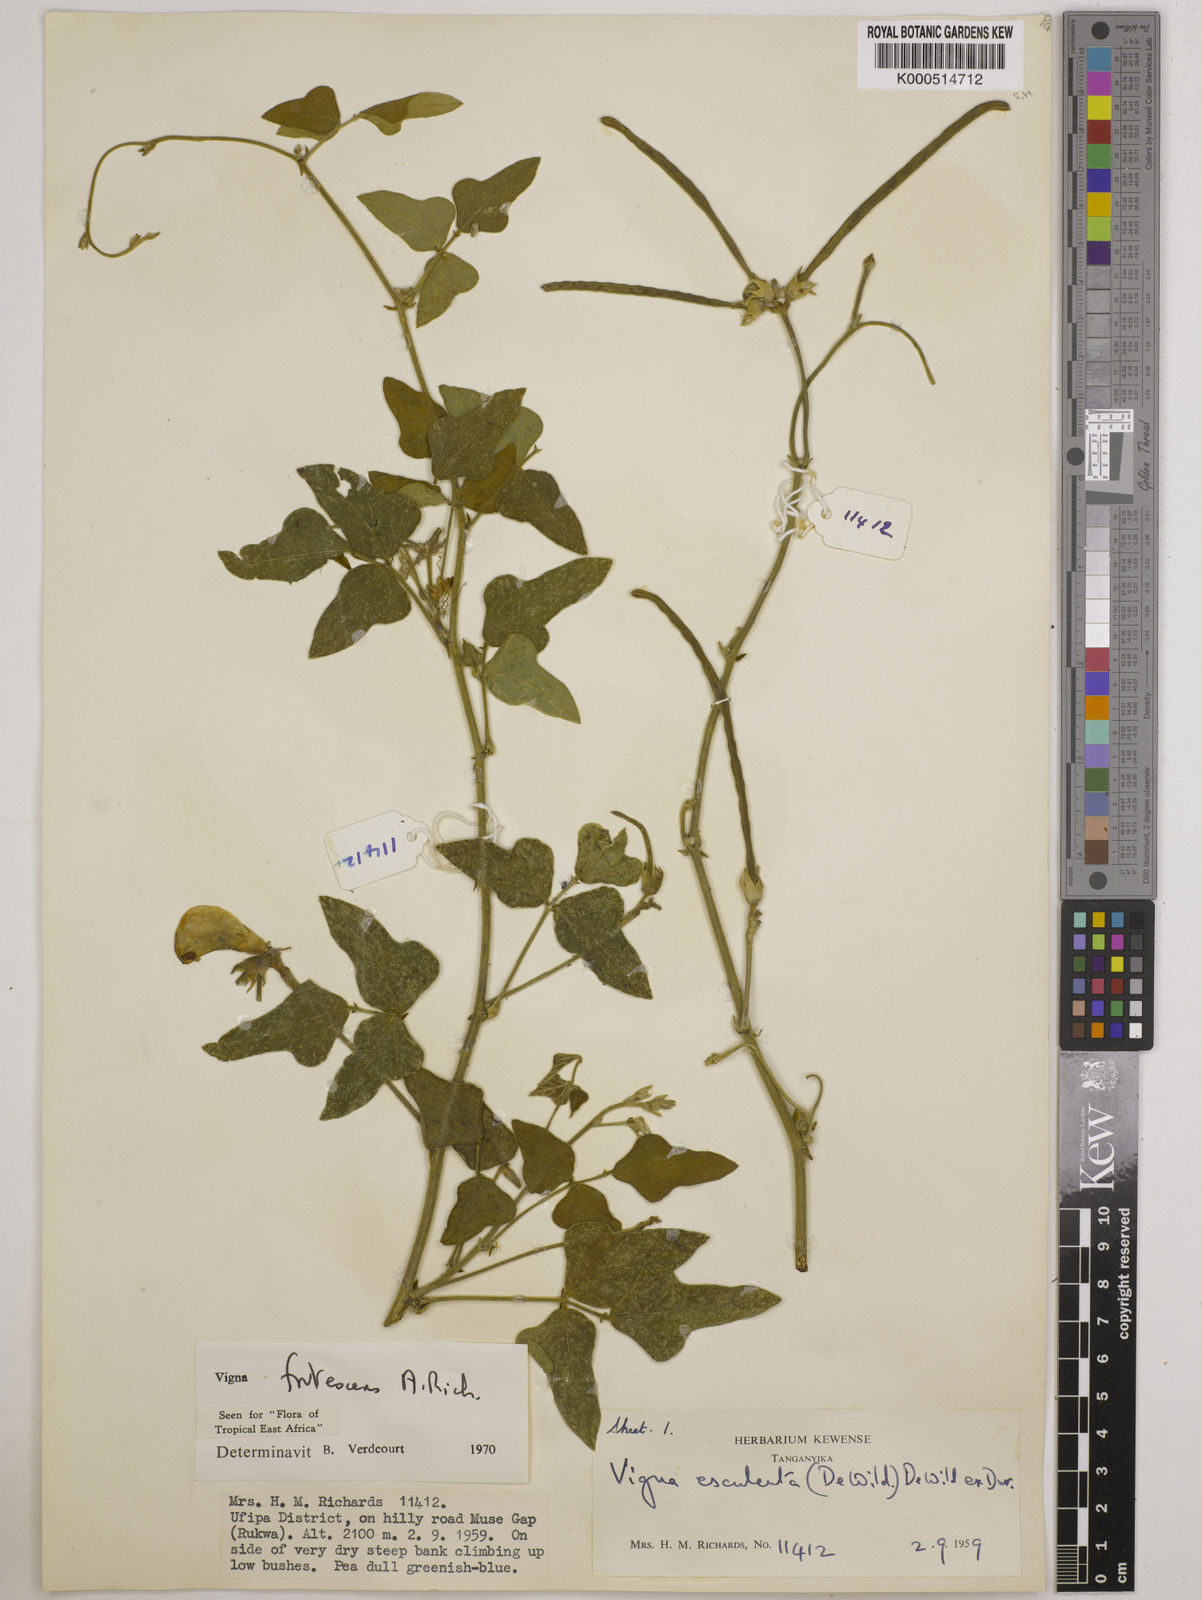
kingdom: Plantae
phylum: Tracheophyta
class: Magnoliopsida
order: Fabales
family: Fabaceae
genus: Vigna
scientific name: Vigna frutescens
